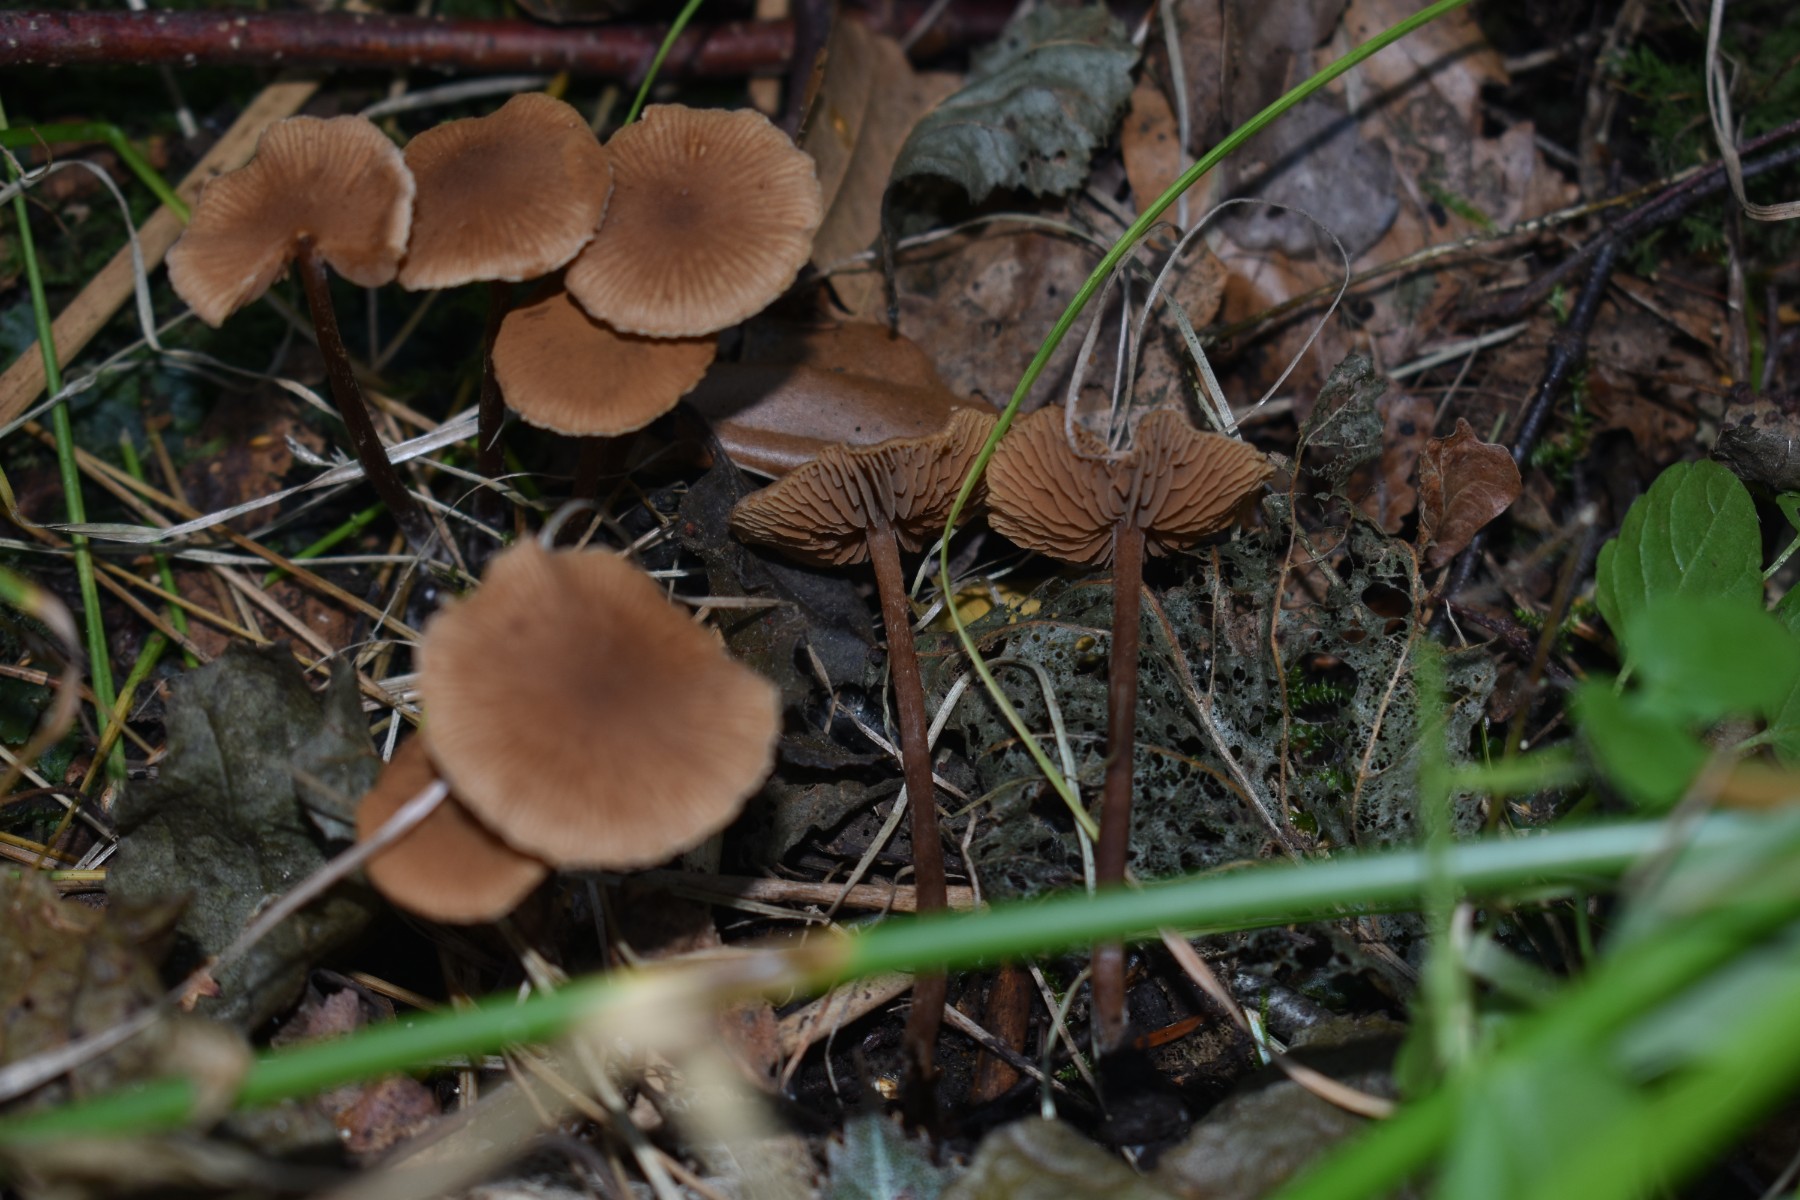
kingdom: Fungi
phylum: Basidiomycota
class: Agaricomycetes
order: Agaricales
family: Hymenogastraceae
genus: Naucoria
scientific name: Naucoria scolecina
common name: mørk elle-knaphat
